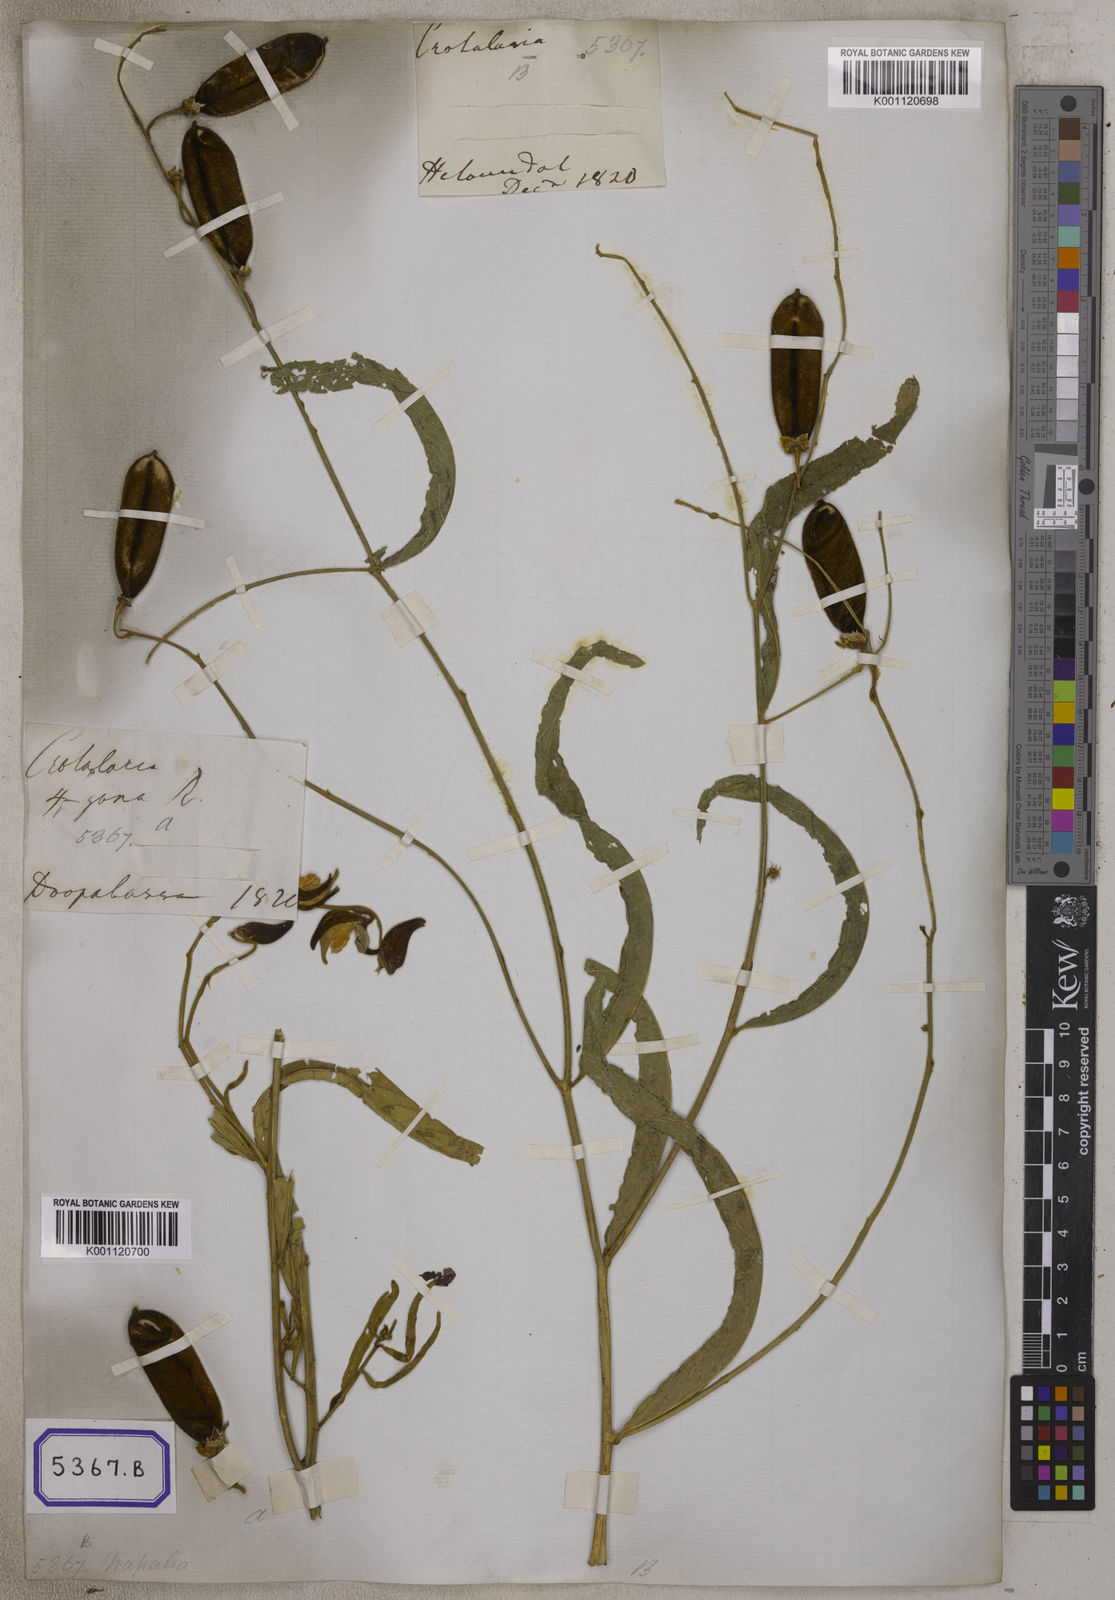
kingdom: Plantae
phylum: Tracheophyta
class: Magnoliopsida
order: Fabales
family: Fabaceae
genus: Crotalaria
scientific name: Crotalaria
